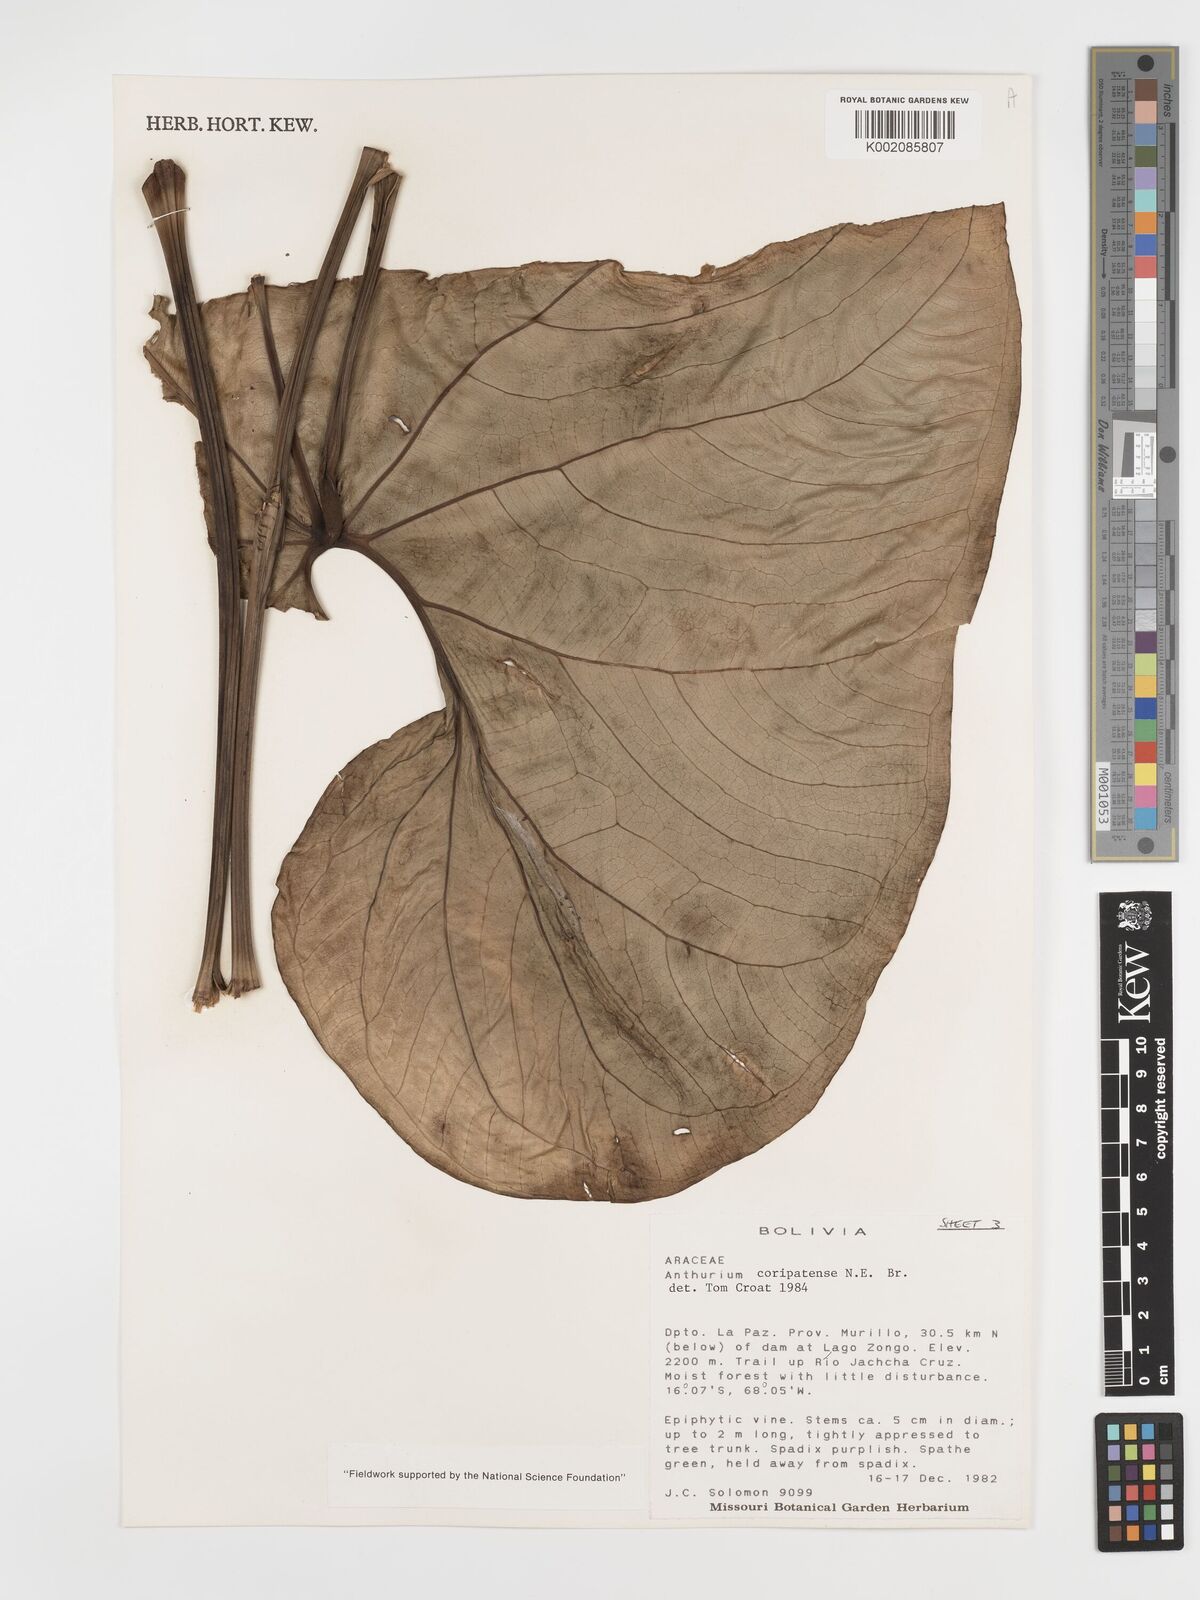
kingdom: Plantae
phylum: Tracheophyta
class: Liliopsida
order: Alismatales
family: Araceae
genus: Anthurium
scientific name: Anthurium coripatense
